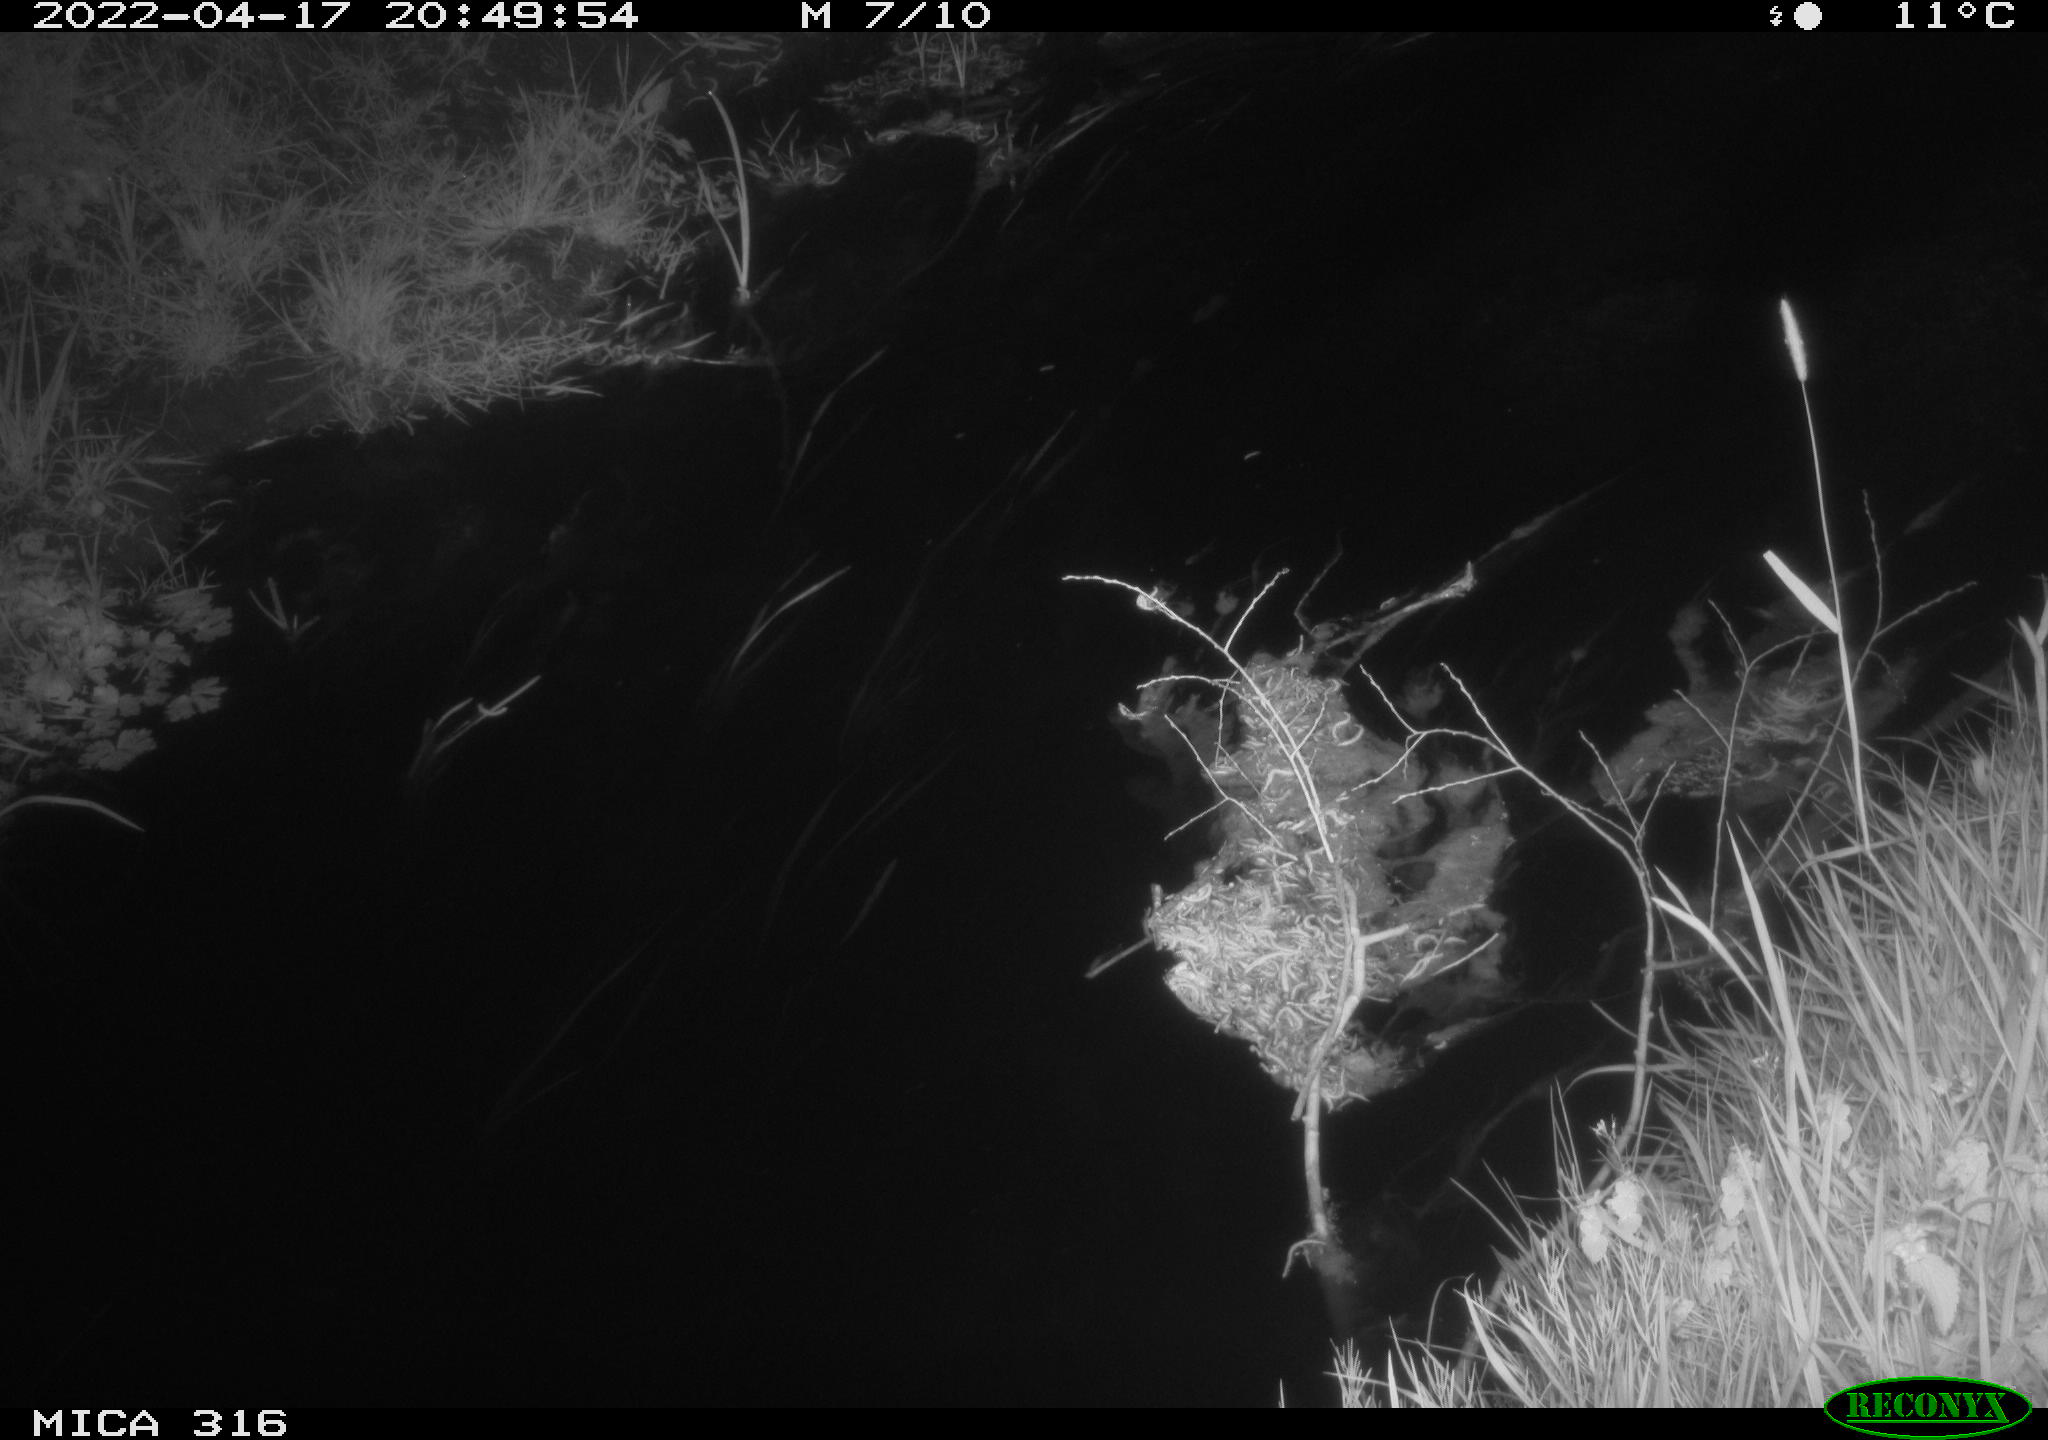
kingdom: Animalia
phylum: Chordata
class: Aves
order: Anseriformes
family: Anatidae
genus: Anas
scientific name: Anas platyrhynchos
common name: Mallard
